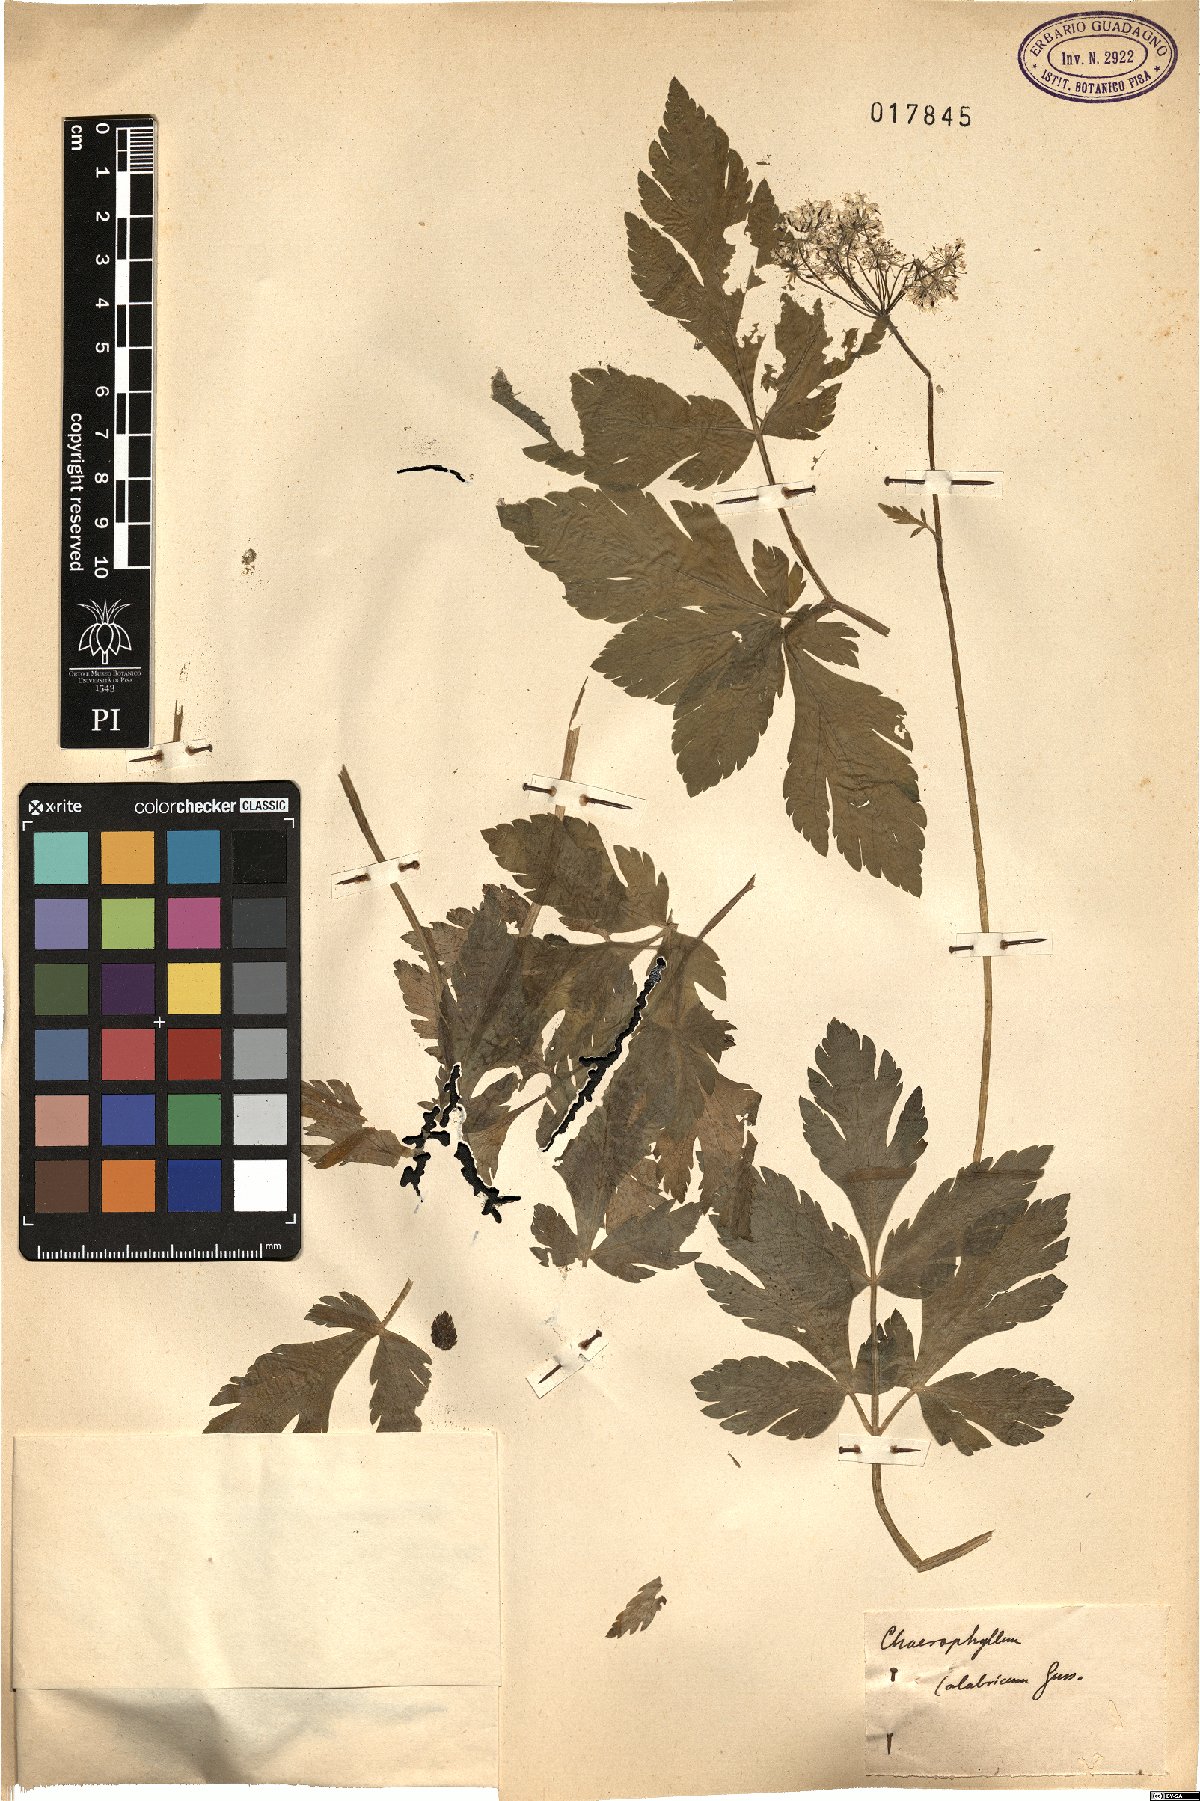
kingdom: Plantae
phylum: Tracheophyta
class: Magnoliopsida
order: Apiales
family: Apiaceae
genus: Chaerophyllum
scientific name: Chaerophyllum hirsutum
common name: Hairy chervil
